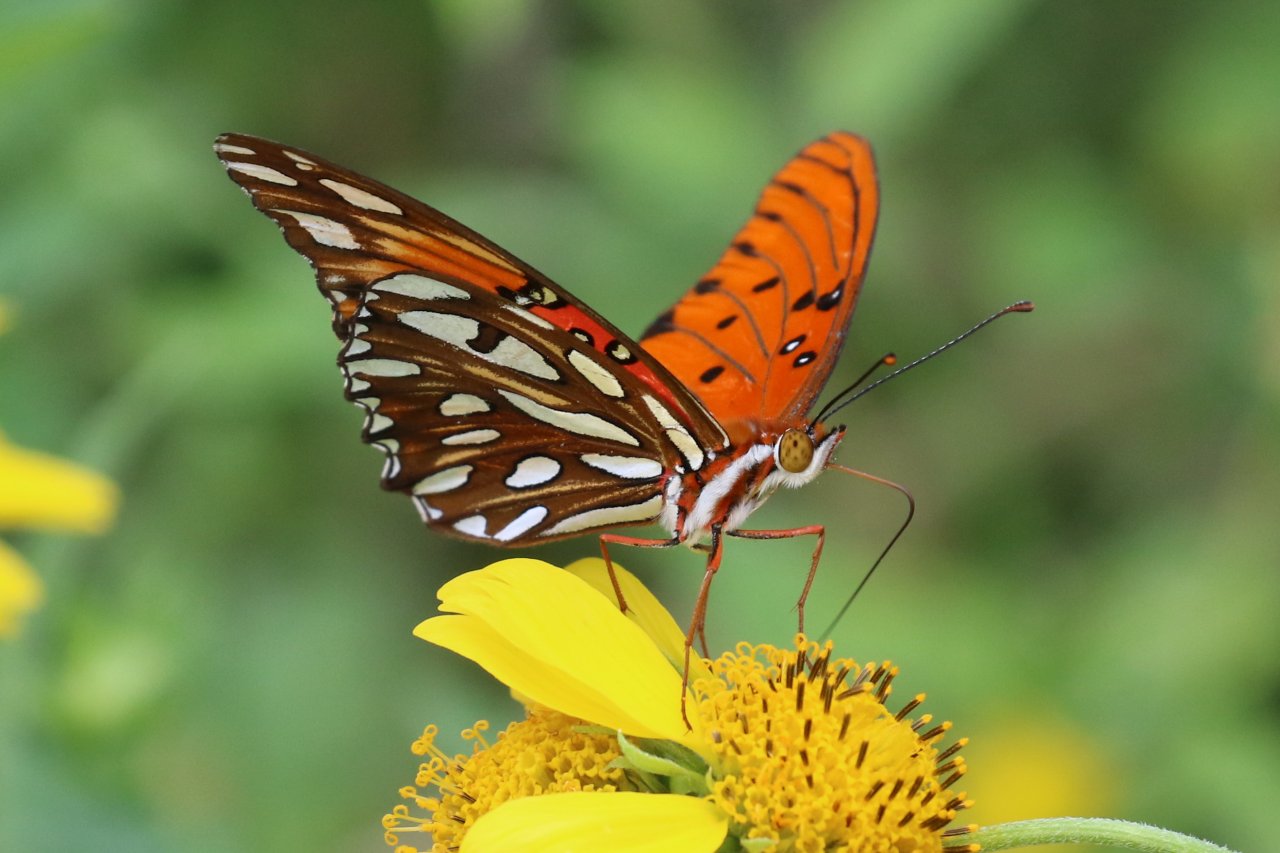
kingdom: Animalia
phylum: Arthropoda
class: Insecta
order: Lepidoptera
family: Nymphalidae
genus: Dione
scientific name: Dione vanillae
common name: Gulf Fritillary
